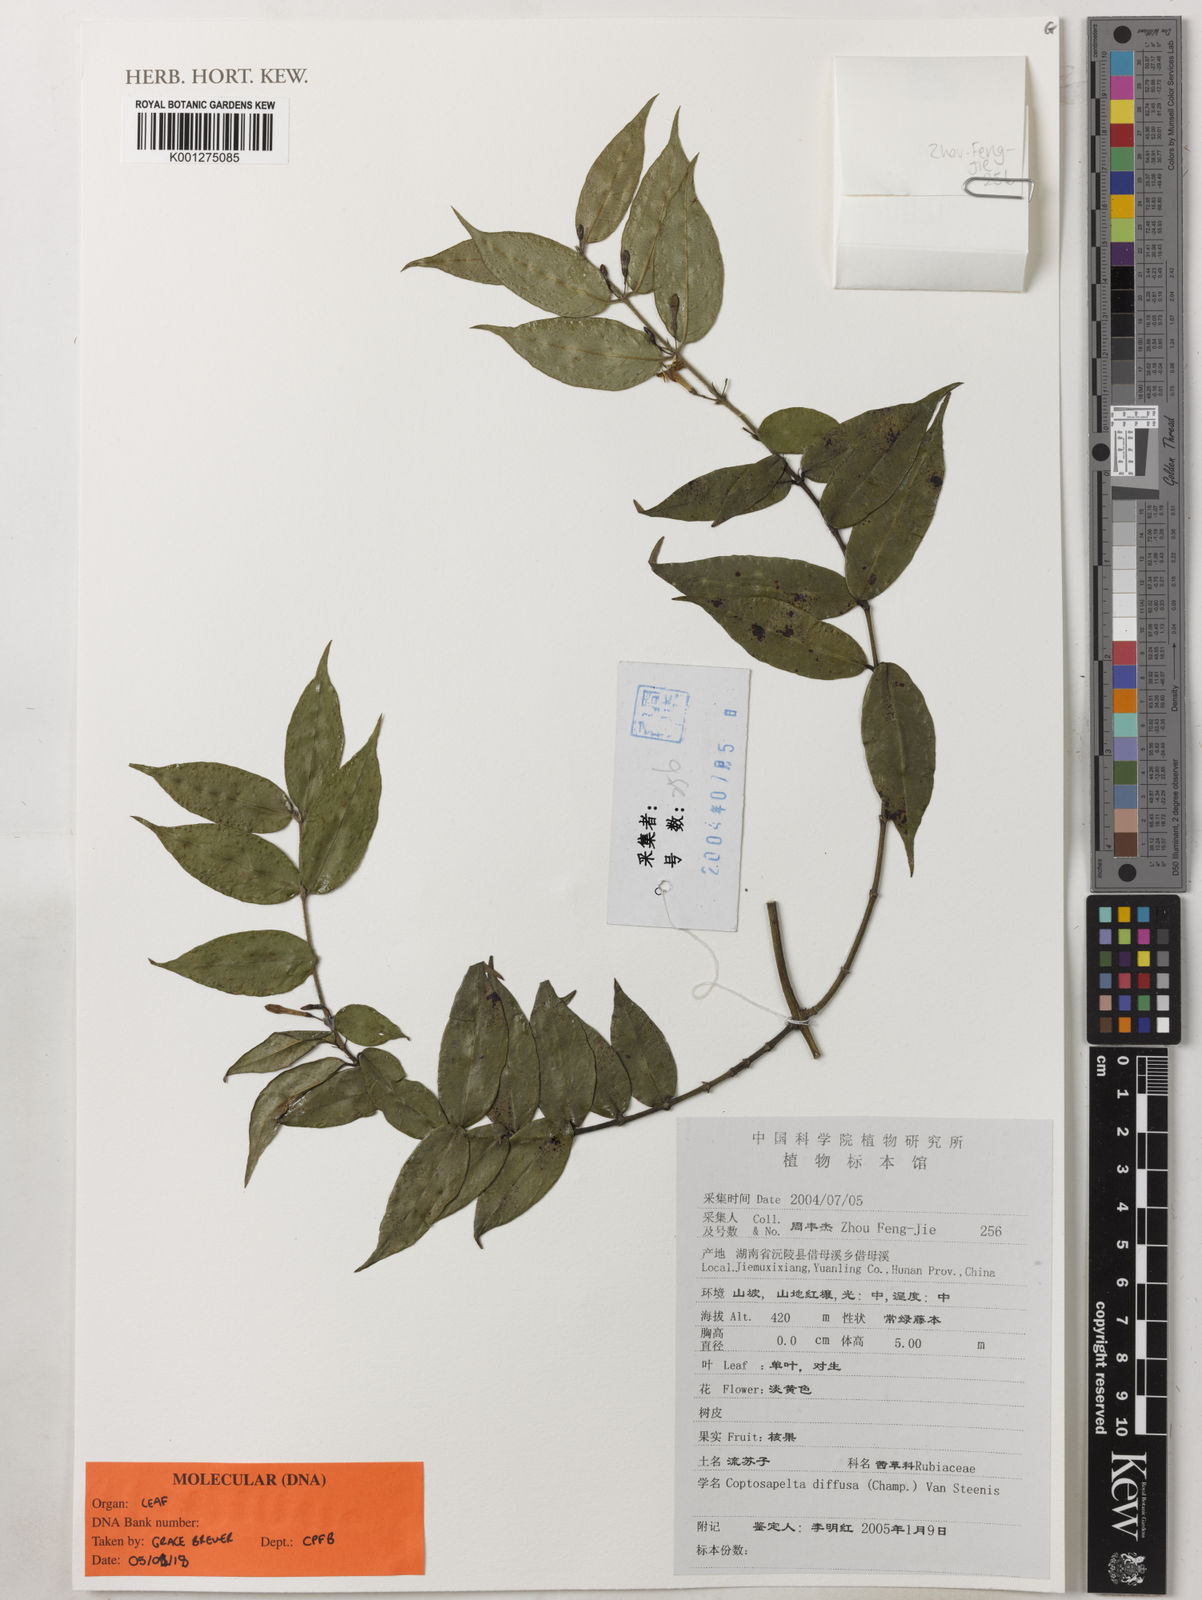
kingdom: Plantae
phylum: Tracheophyta
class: Magnoliopsida
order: Gentianales
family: Rubiaceae
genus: Coptosapelta
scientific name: Coptosapelta diffusa
